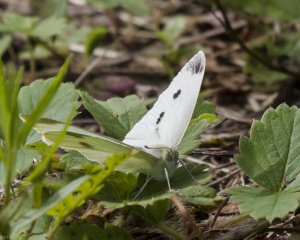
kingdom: Animalia
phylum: Arthropoda
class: Insecta
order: Lepidoptera
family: Pieridae
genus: Pieris
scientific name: Pieris rapae
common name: Cabbage White
